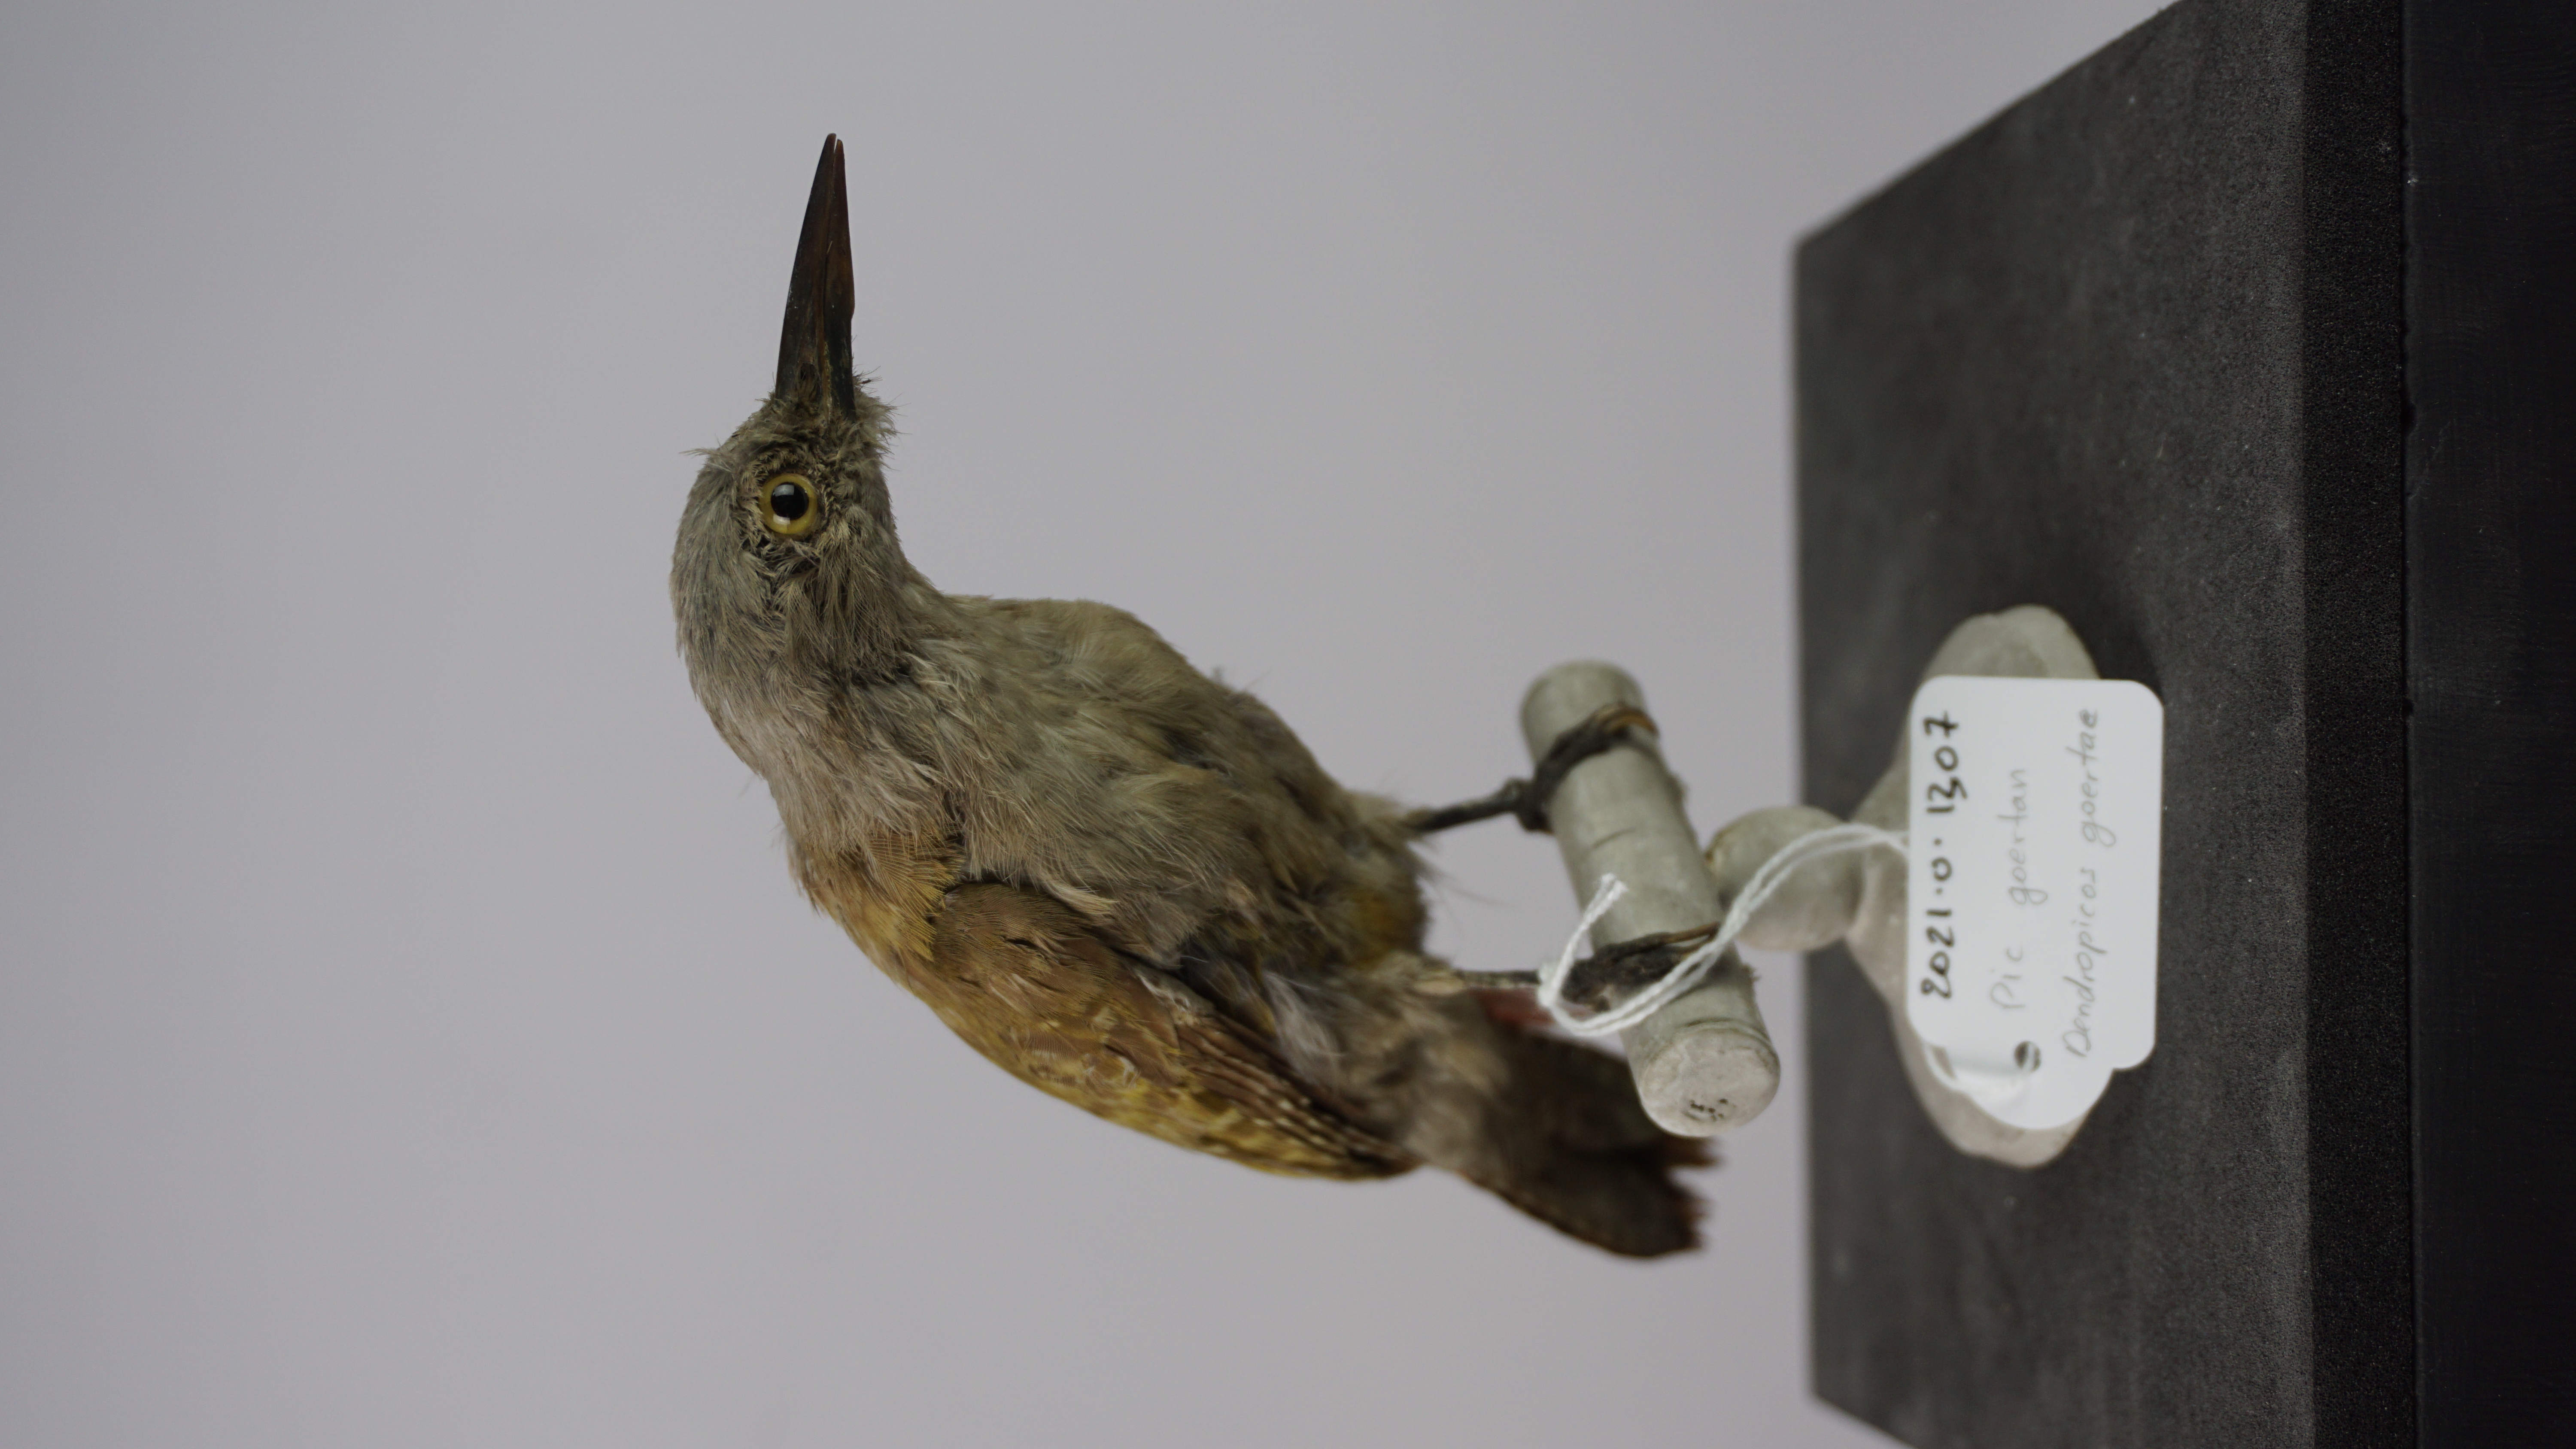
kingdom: Animalia
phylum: Chordata
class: Aves
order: Piciformes
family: Picidae
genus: Dendropicos
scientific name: Dendropicos goertae
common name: African grey woodpecker
